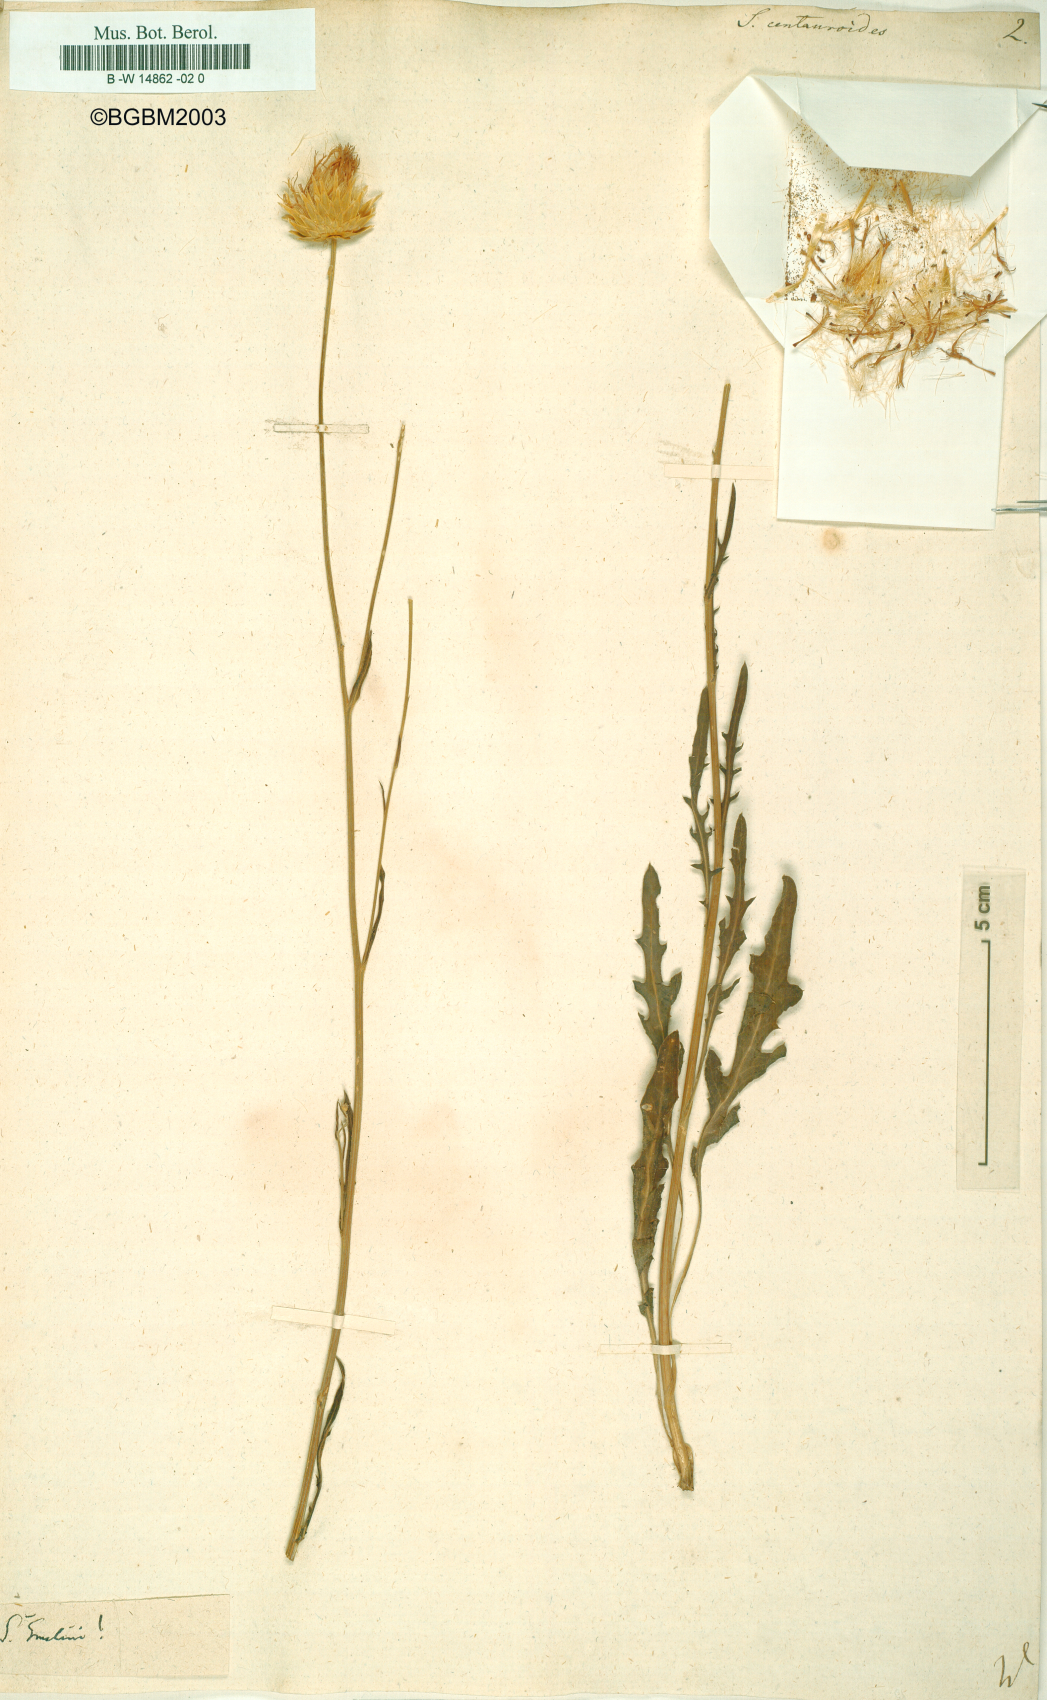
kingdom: Plantae
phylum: Tracheophyta
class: Magnoliopsida
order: Asterales
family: Asteraceae
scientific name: Asteraceae
